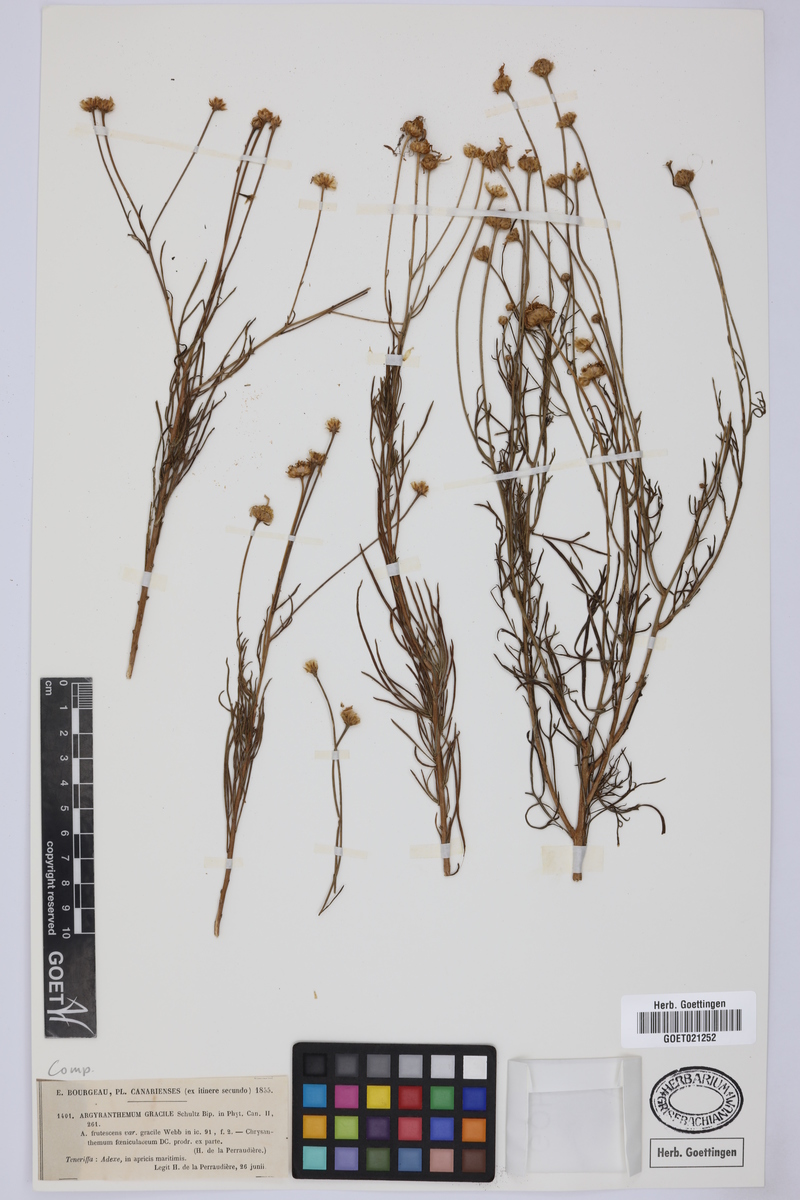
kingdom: Plantae
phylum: Tracheophyta
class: Magnoliopsida
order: Asterales
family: Asteraceae
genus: Argyranthemum
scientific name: Argyranthemum gracile
